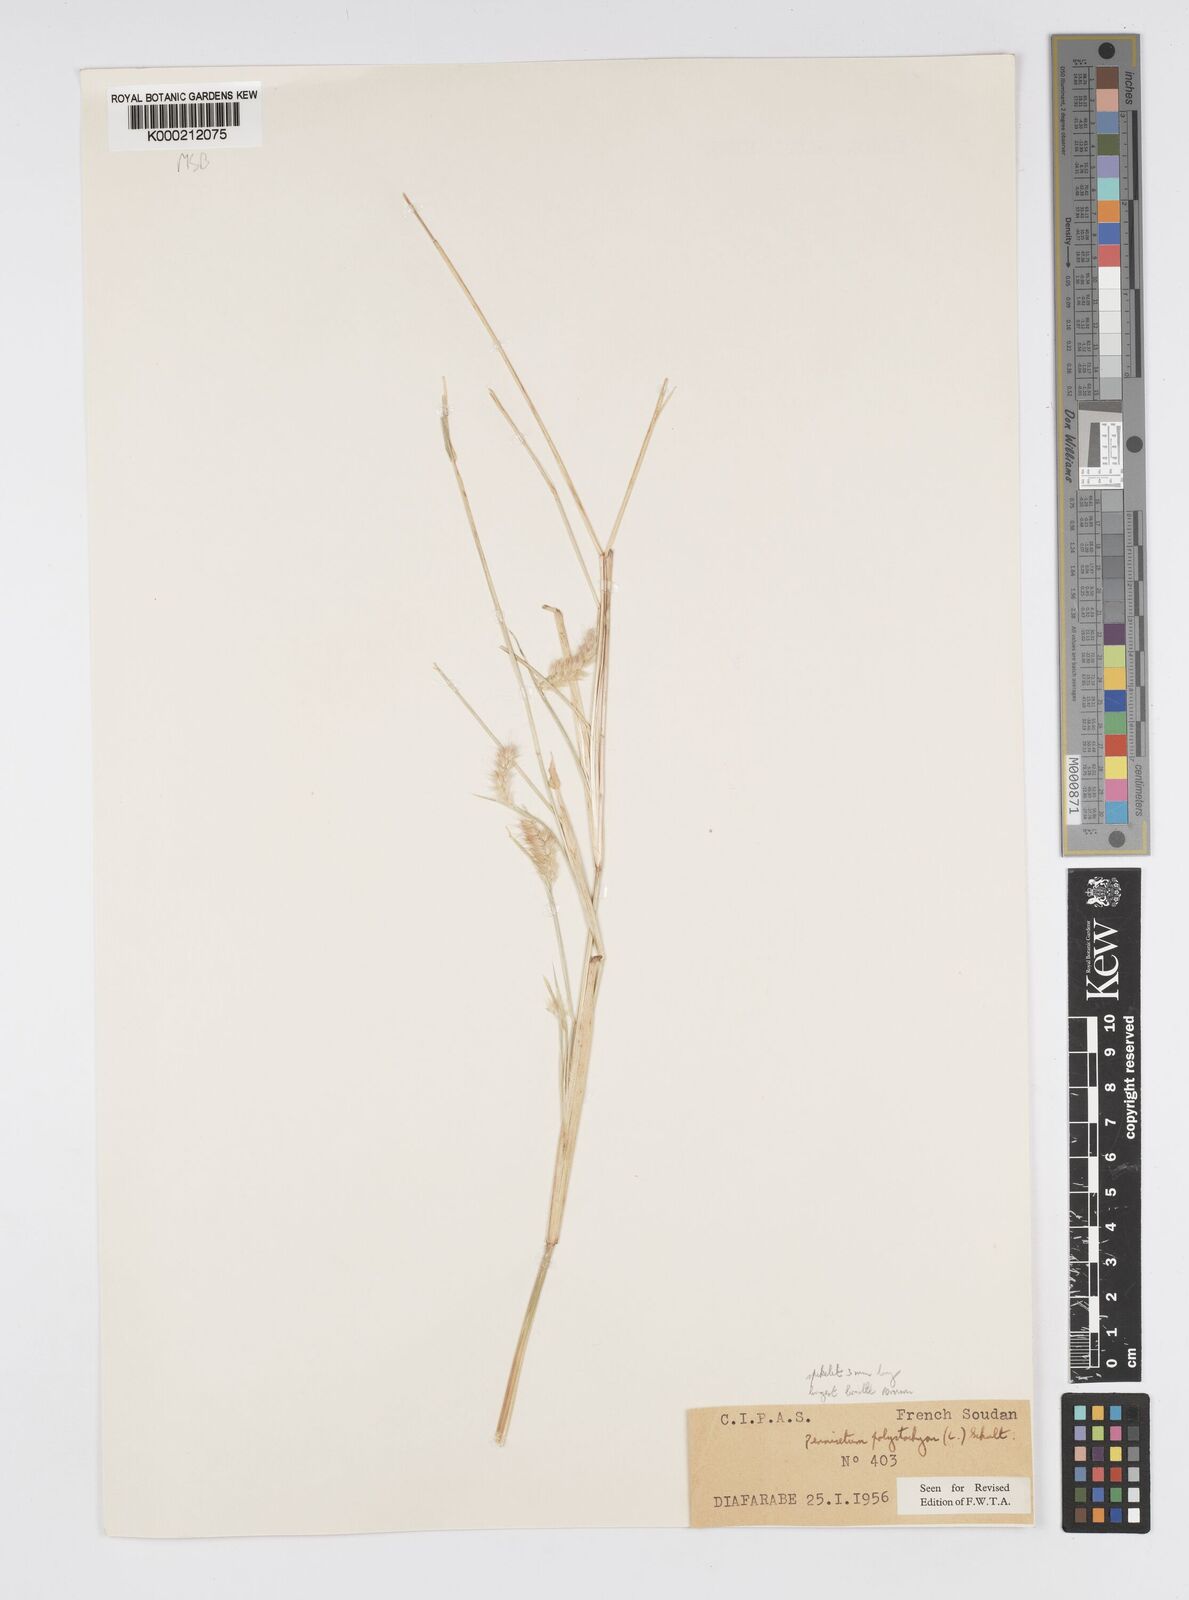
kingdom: Plantae
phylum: Tracheophyta
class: Liliopsida
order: Poales
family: Poaceae
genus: Setaria
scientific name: Setaria parviflora
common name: Knotroot bristle-grass
